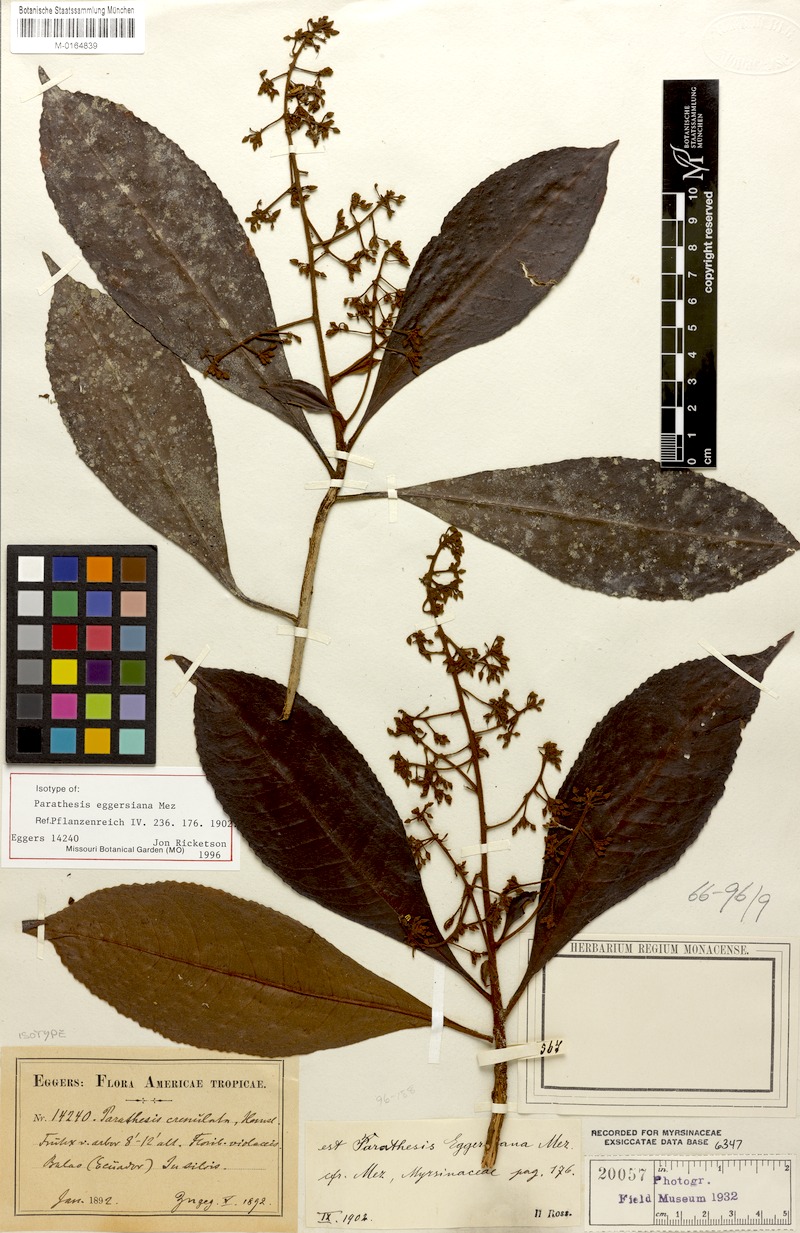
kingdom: Plantae
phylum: Tracheophyta
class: Magnoliopsida
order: Ericales
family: Primulaceae
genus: Parathesis
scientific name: Parathesis eggersiana
